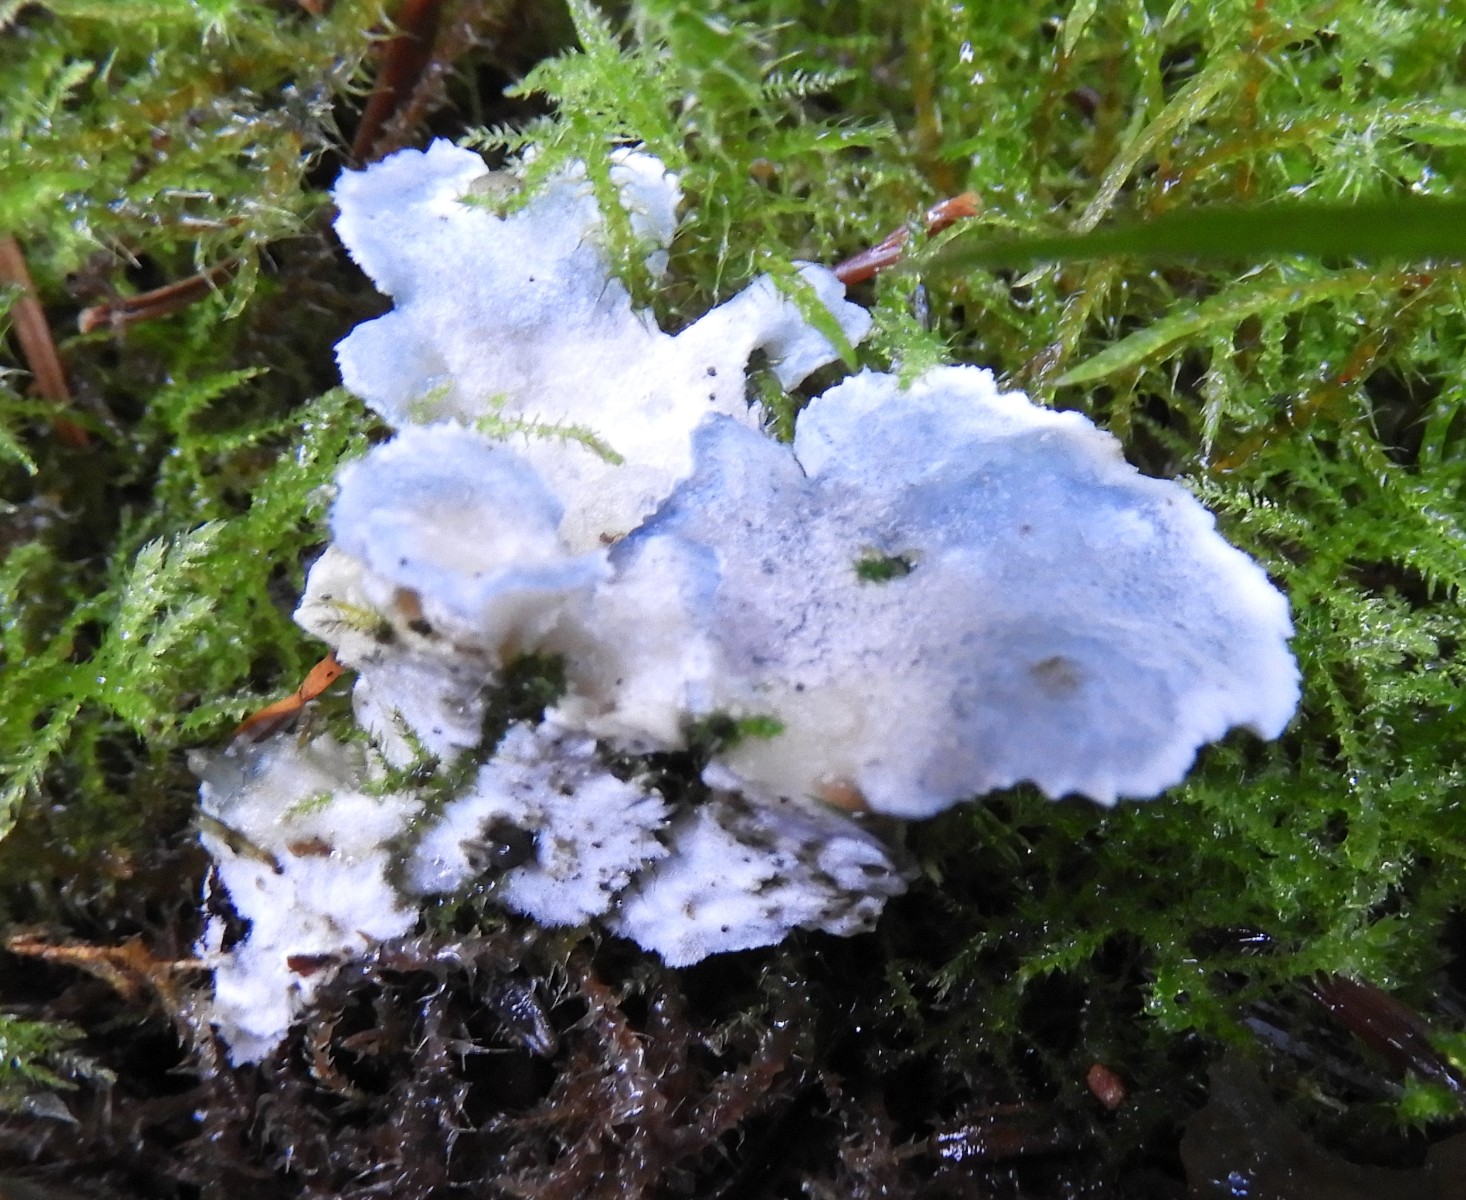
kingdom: Fungi
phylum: Basidiomycota
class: Agaricomycetes
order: Polyporales
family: Polyporaceae
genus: Cyanosporus
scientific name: Cyanosporus caesius
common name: blålig kødporesvamp
